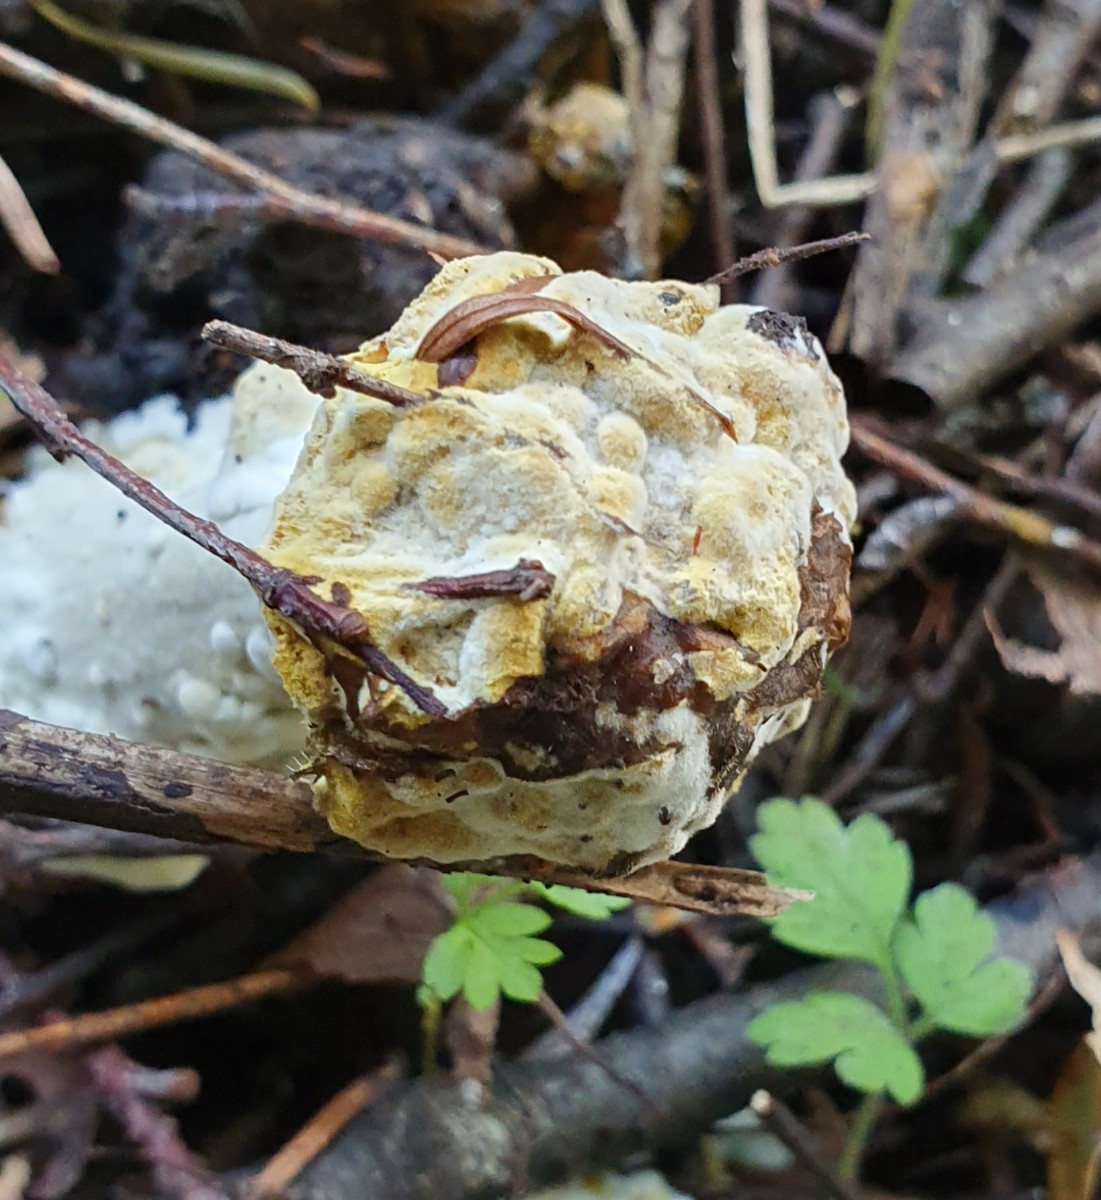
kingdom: Fungi
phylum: Ascomycota
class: Sordariomycetes
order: Hypocreales
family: Hypocreaceae
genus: Hypomyces
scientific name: Hypomyces
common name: snylteskorpe
